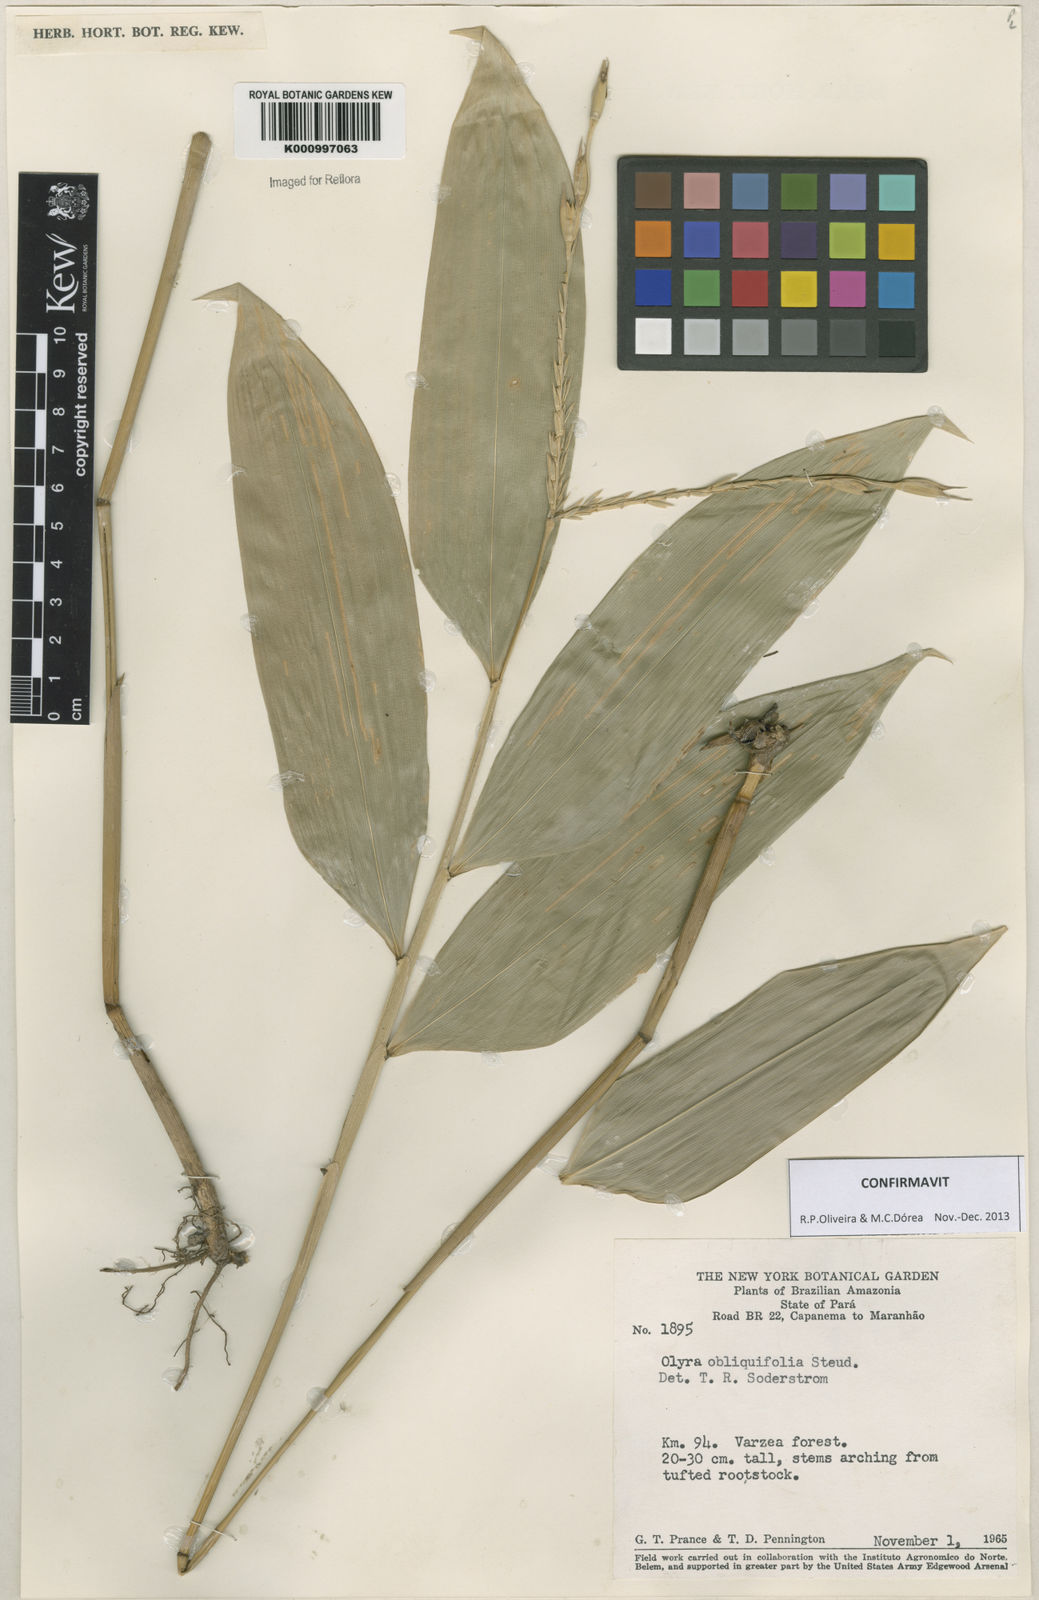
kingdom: Plantae
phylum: Tracheophyta
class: Liliopsida
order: Poales
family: Poaceae
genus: Olyra
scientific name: Olyra obliquifolia
